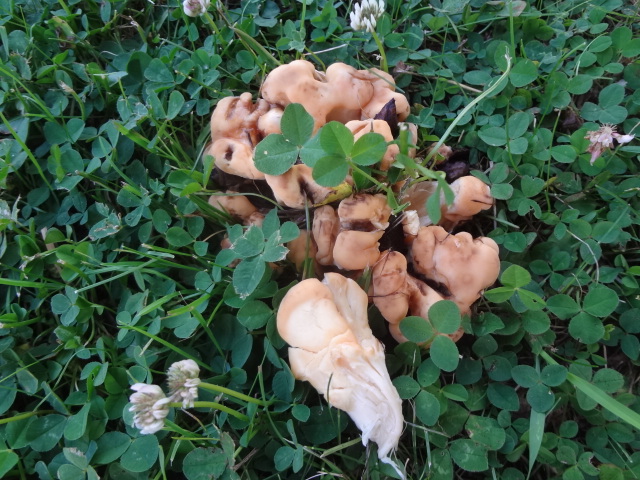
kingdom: Fungi
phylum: Basidiomycota
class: Agaricomycetes
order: Polyporales
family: Meripilaceae
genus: Meripilus
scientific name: Meripilus giganteus
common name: kæmpeporesvamp
